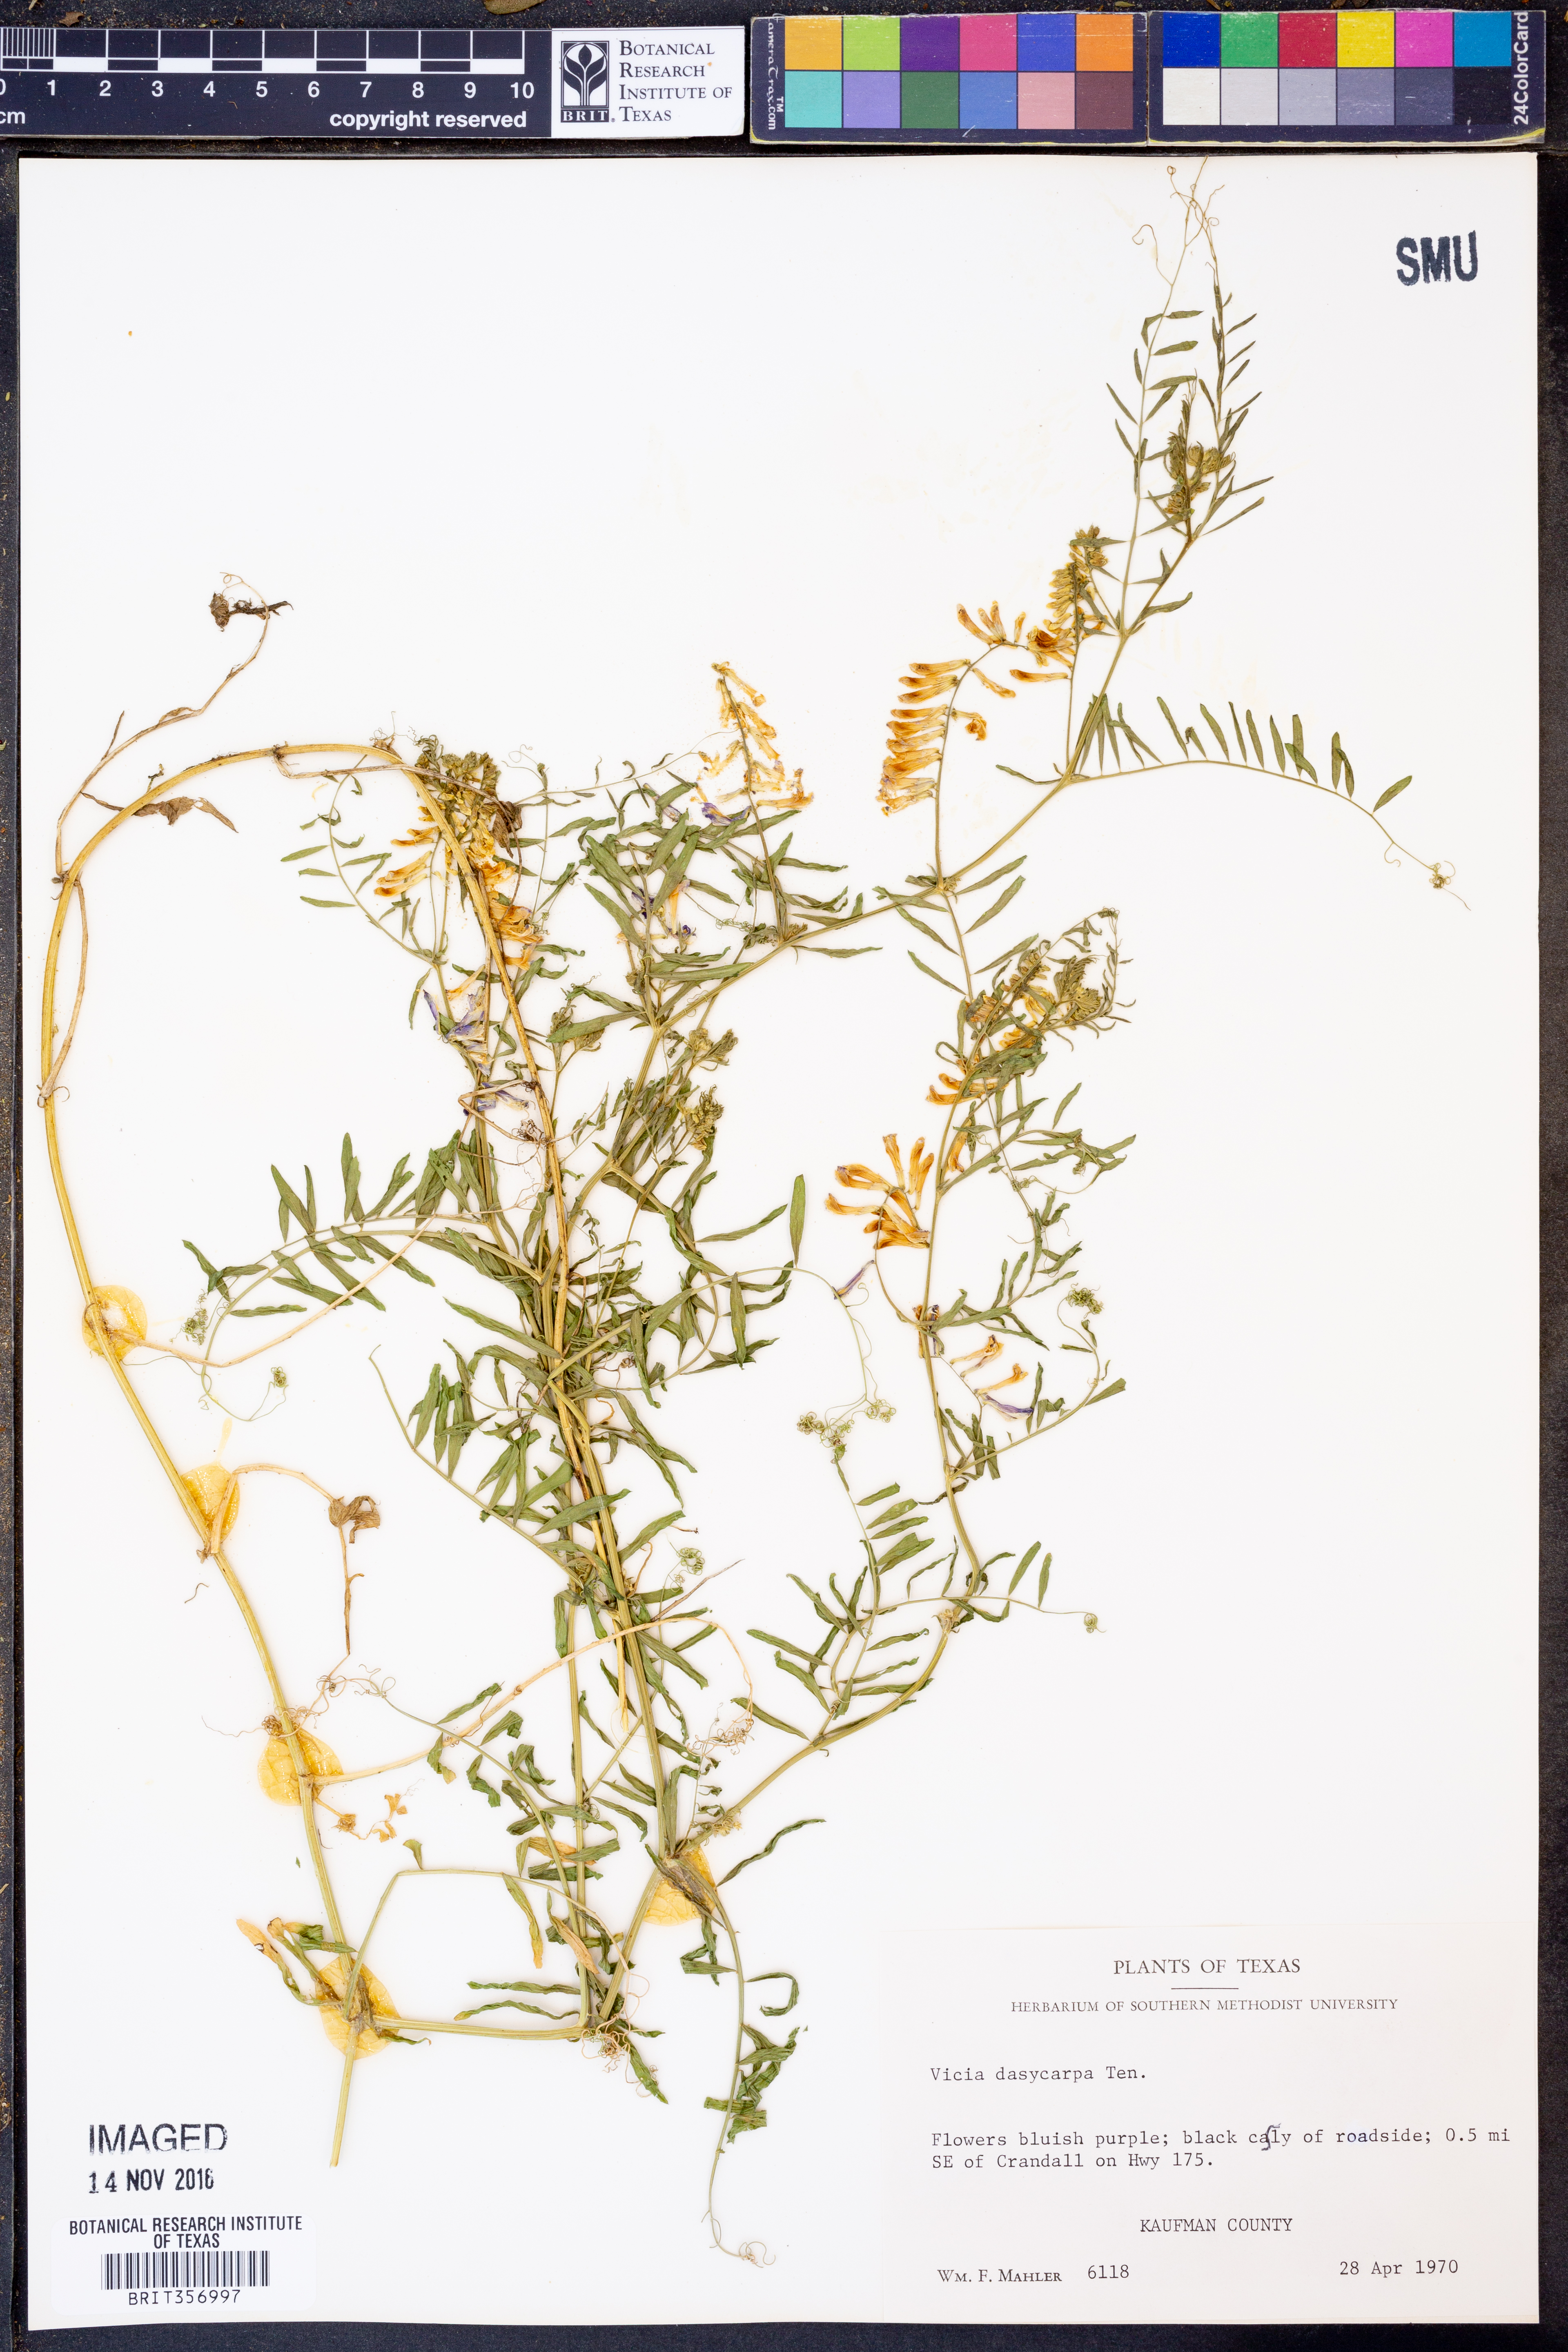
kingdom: Plantae
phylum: Tracheophyta
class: Magnoliopsida
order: Fabales
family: Fabaceae
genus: Vicia
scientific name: Vicia villosa
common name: Fodder vetch
